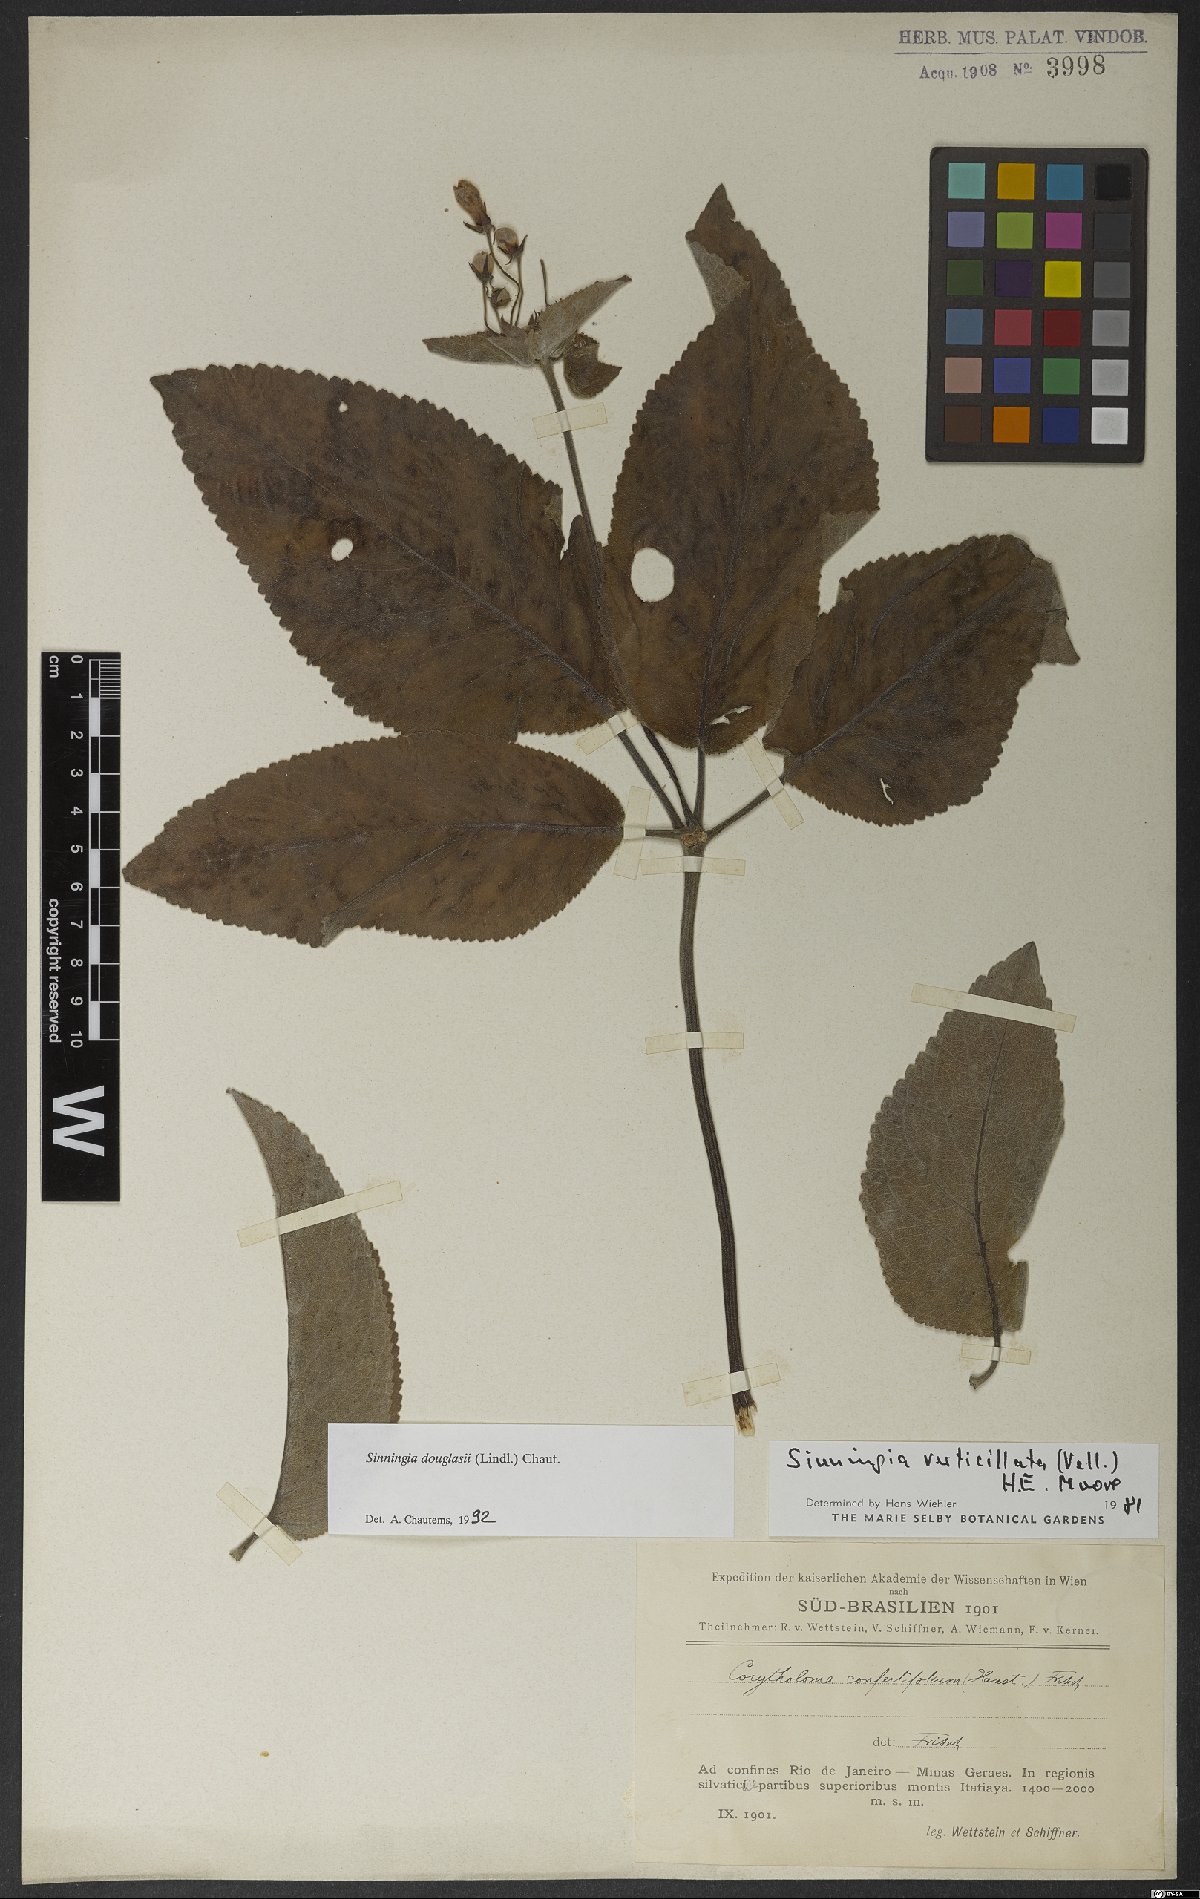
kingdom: Plantae
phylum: Tracheophyta
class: Magnoliopsida
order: Lamiales
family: Gesneriaceae
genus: Sinningia
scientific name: Sinningia douglasii
